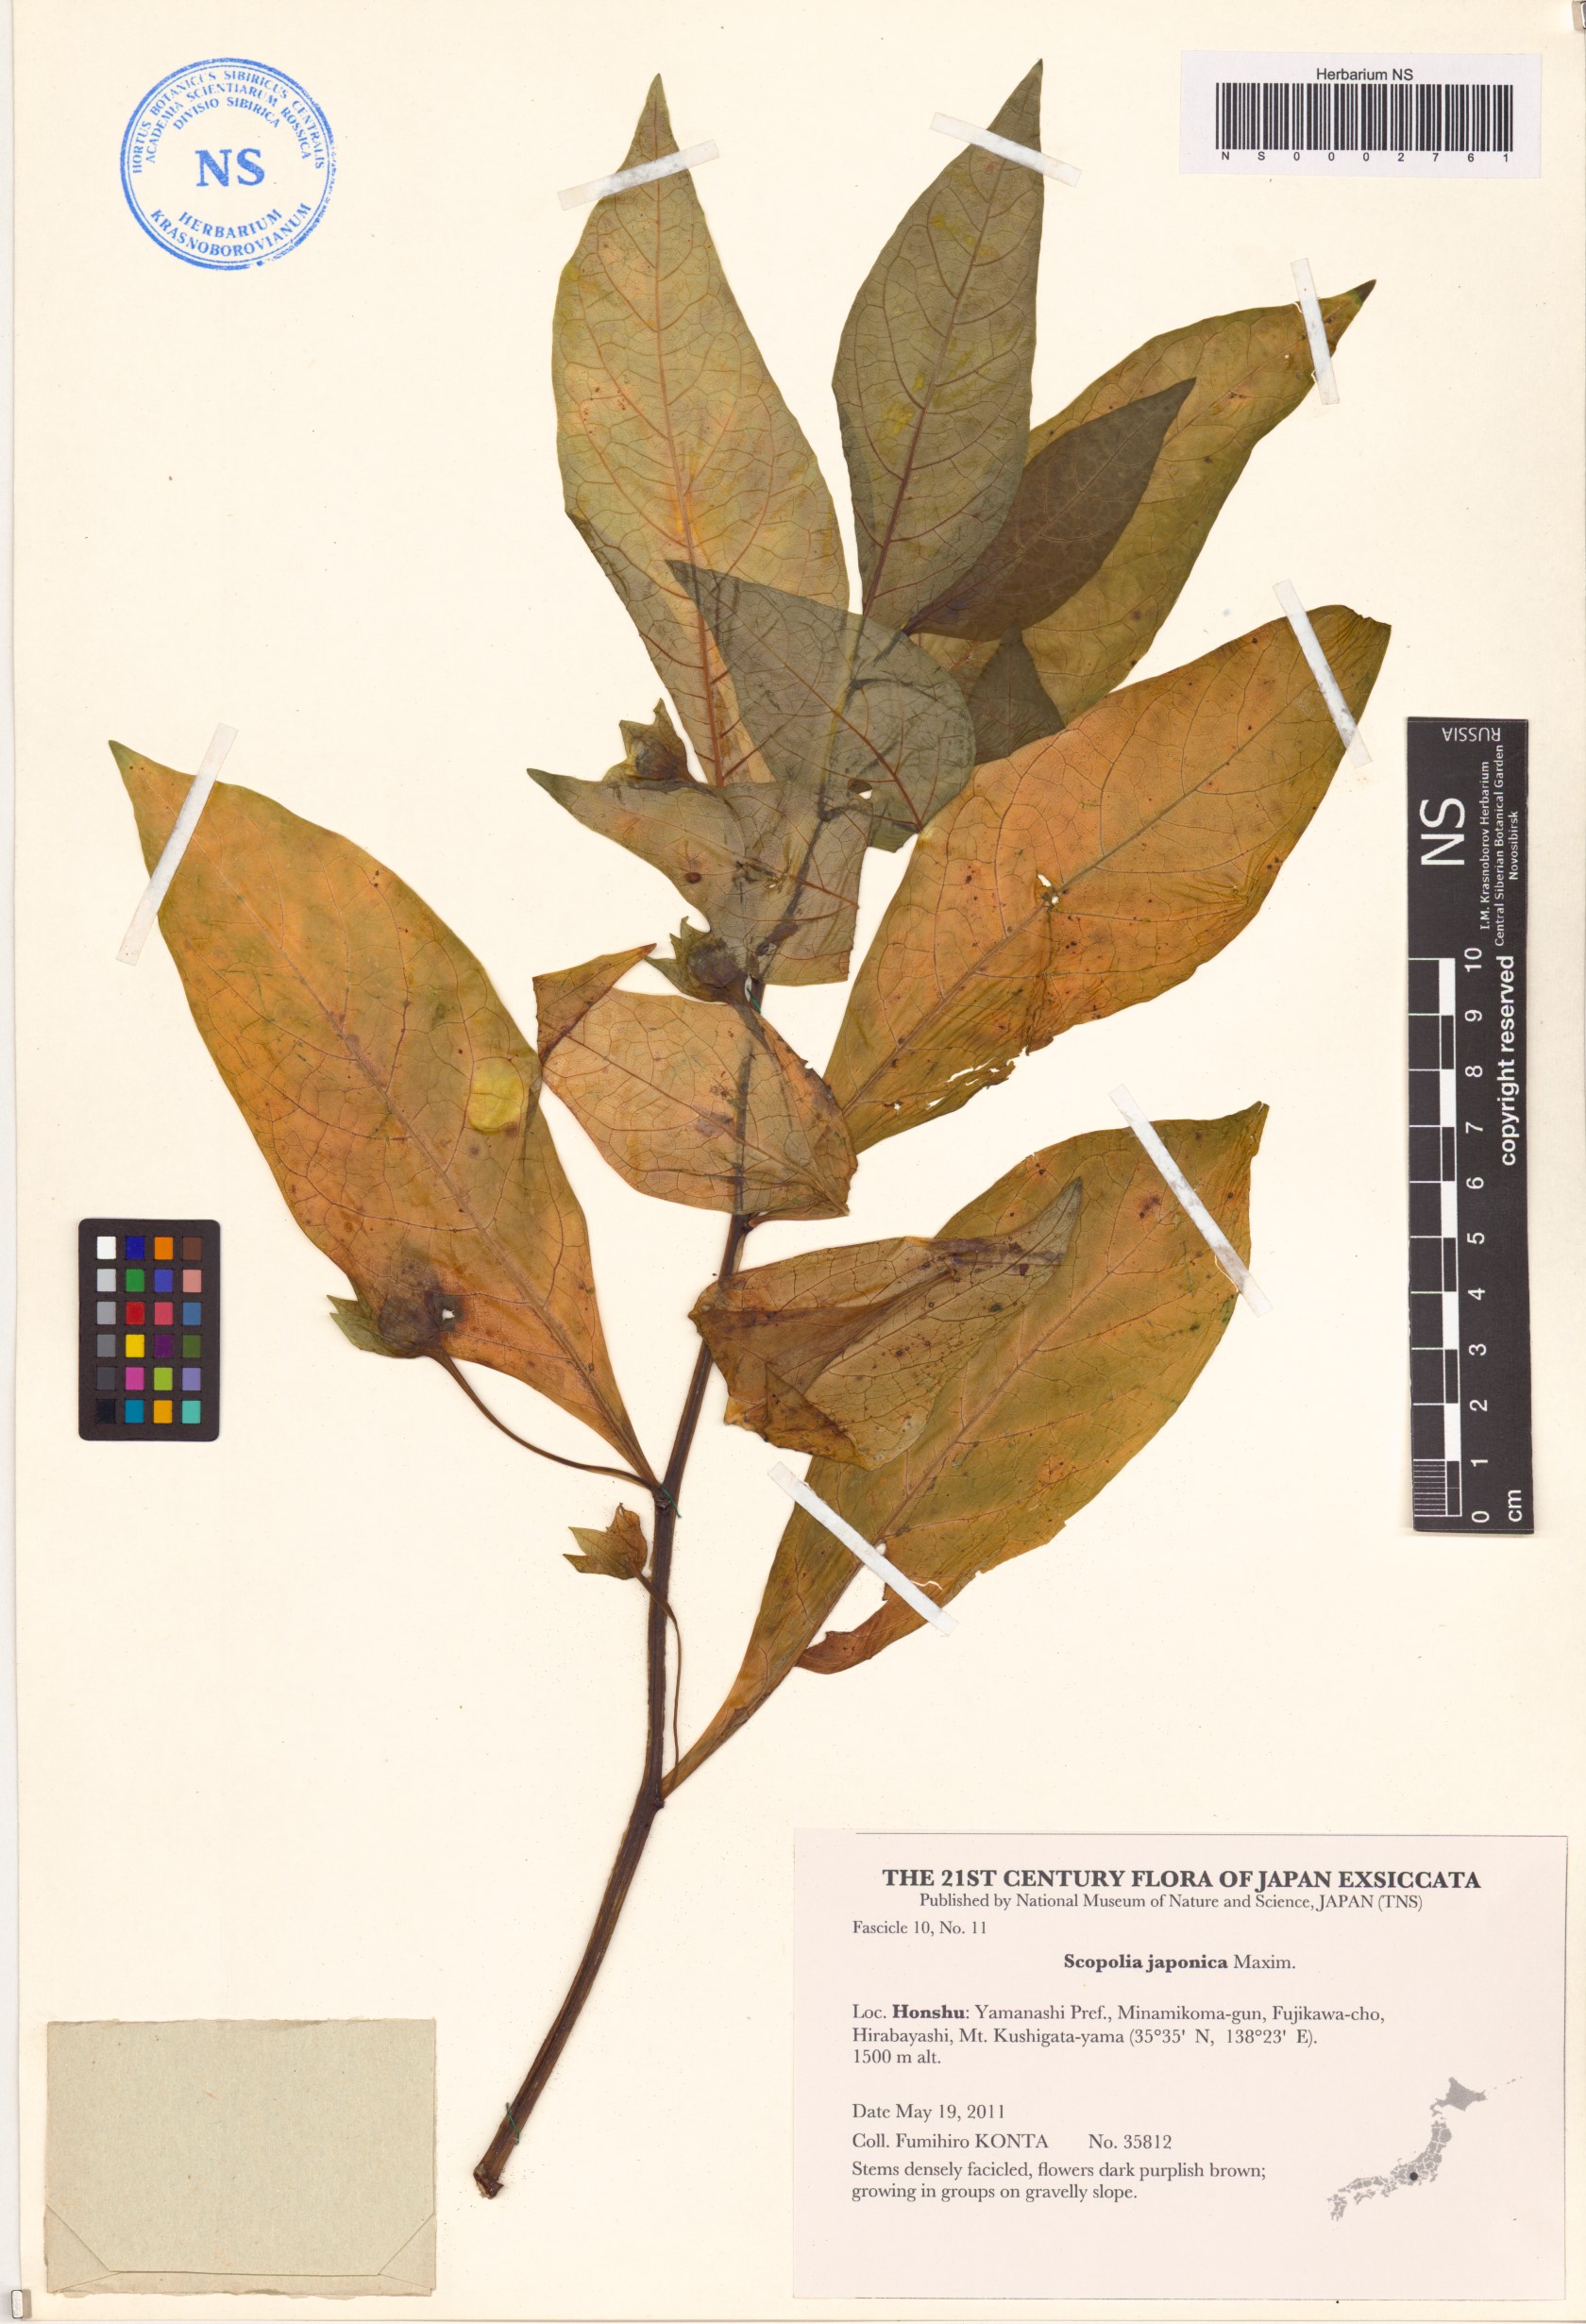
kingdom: Plantae
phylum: Tracheophyta
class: Magnoliopsida
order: Solanales
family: Solanaceae
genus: Scopolia
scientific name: Scopolia japonica
